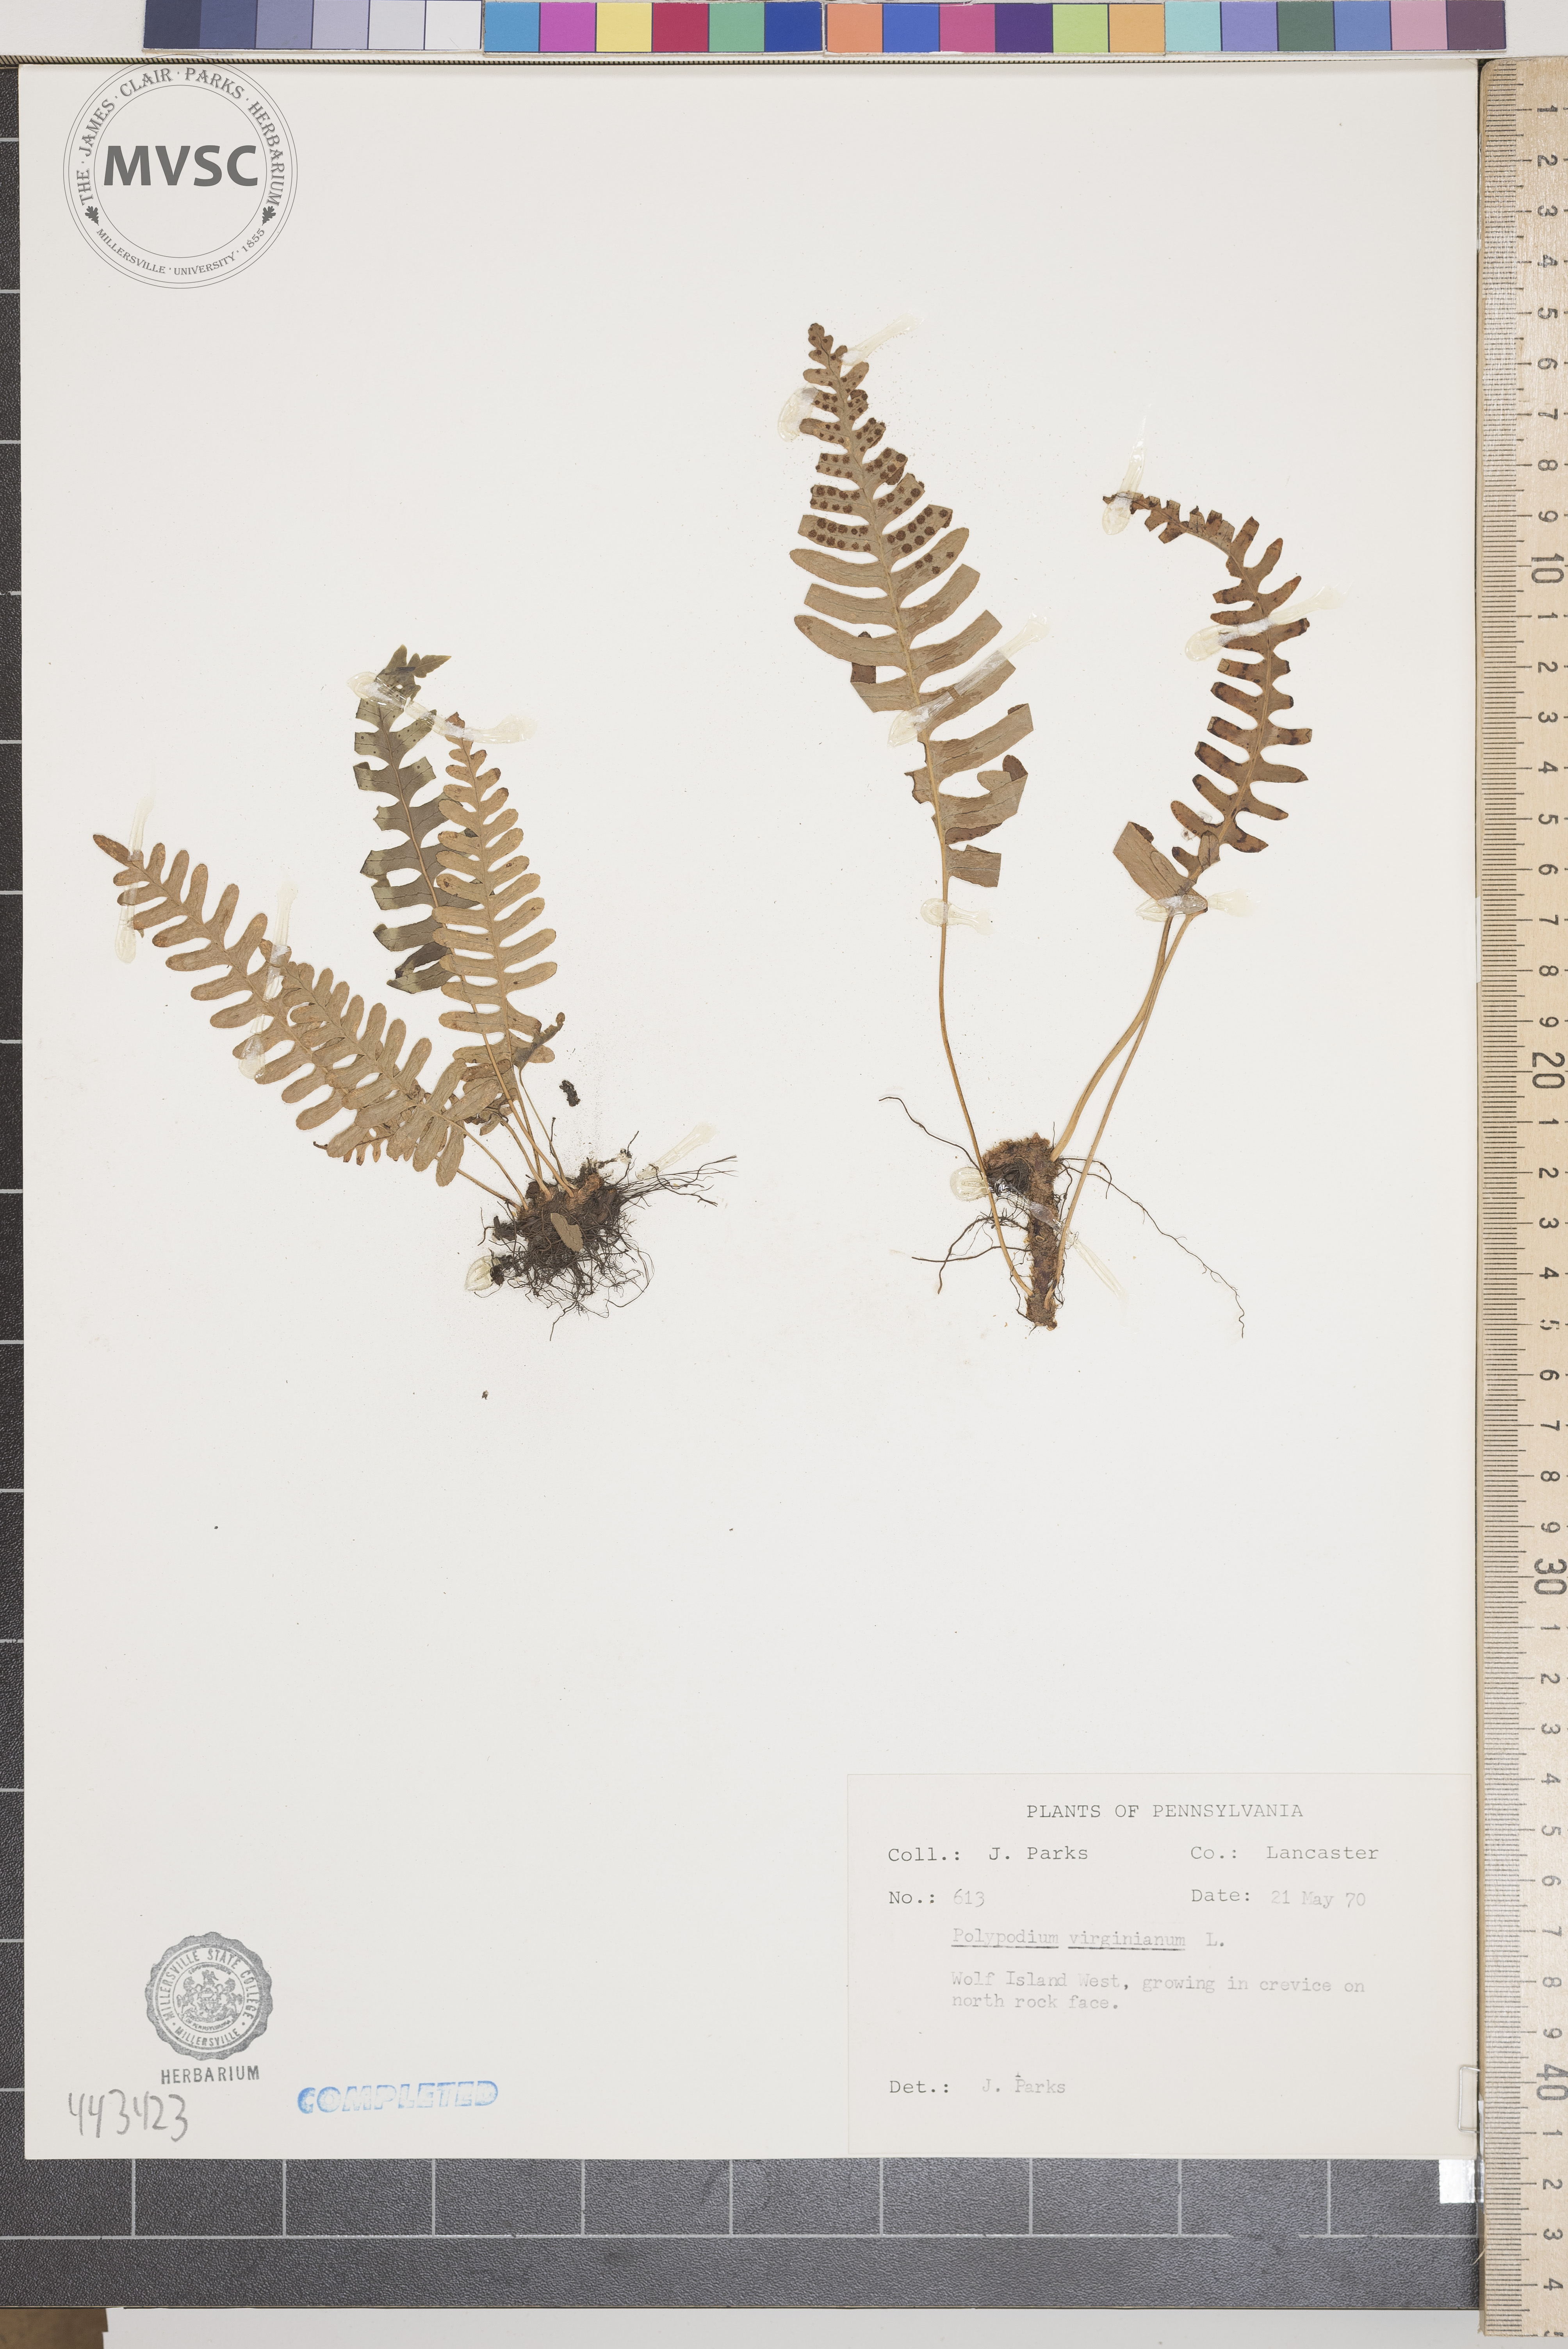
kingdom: Plantae
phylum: Tracheophyta
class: Polypodiopsida
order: Polypodiales
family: Polypodiaceae
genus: Polypodium
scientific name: Polypodium virginianum
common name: American wall fern
